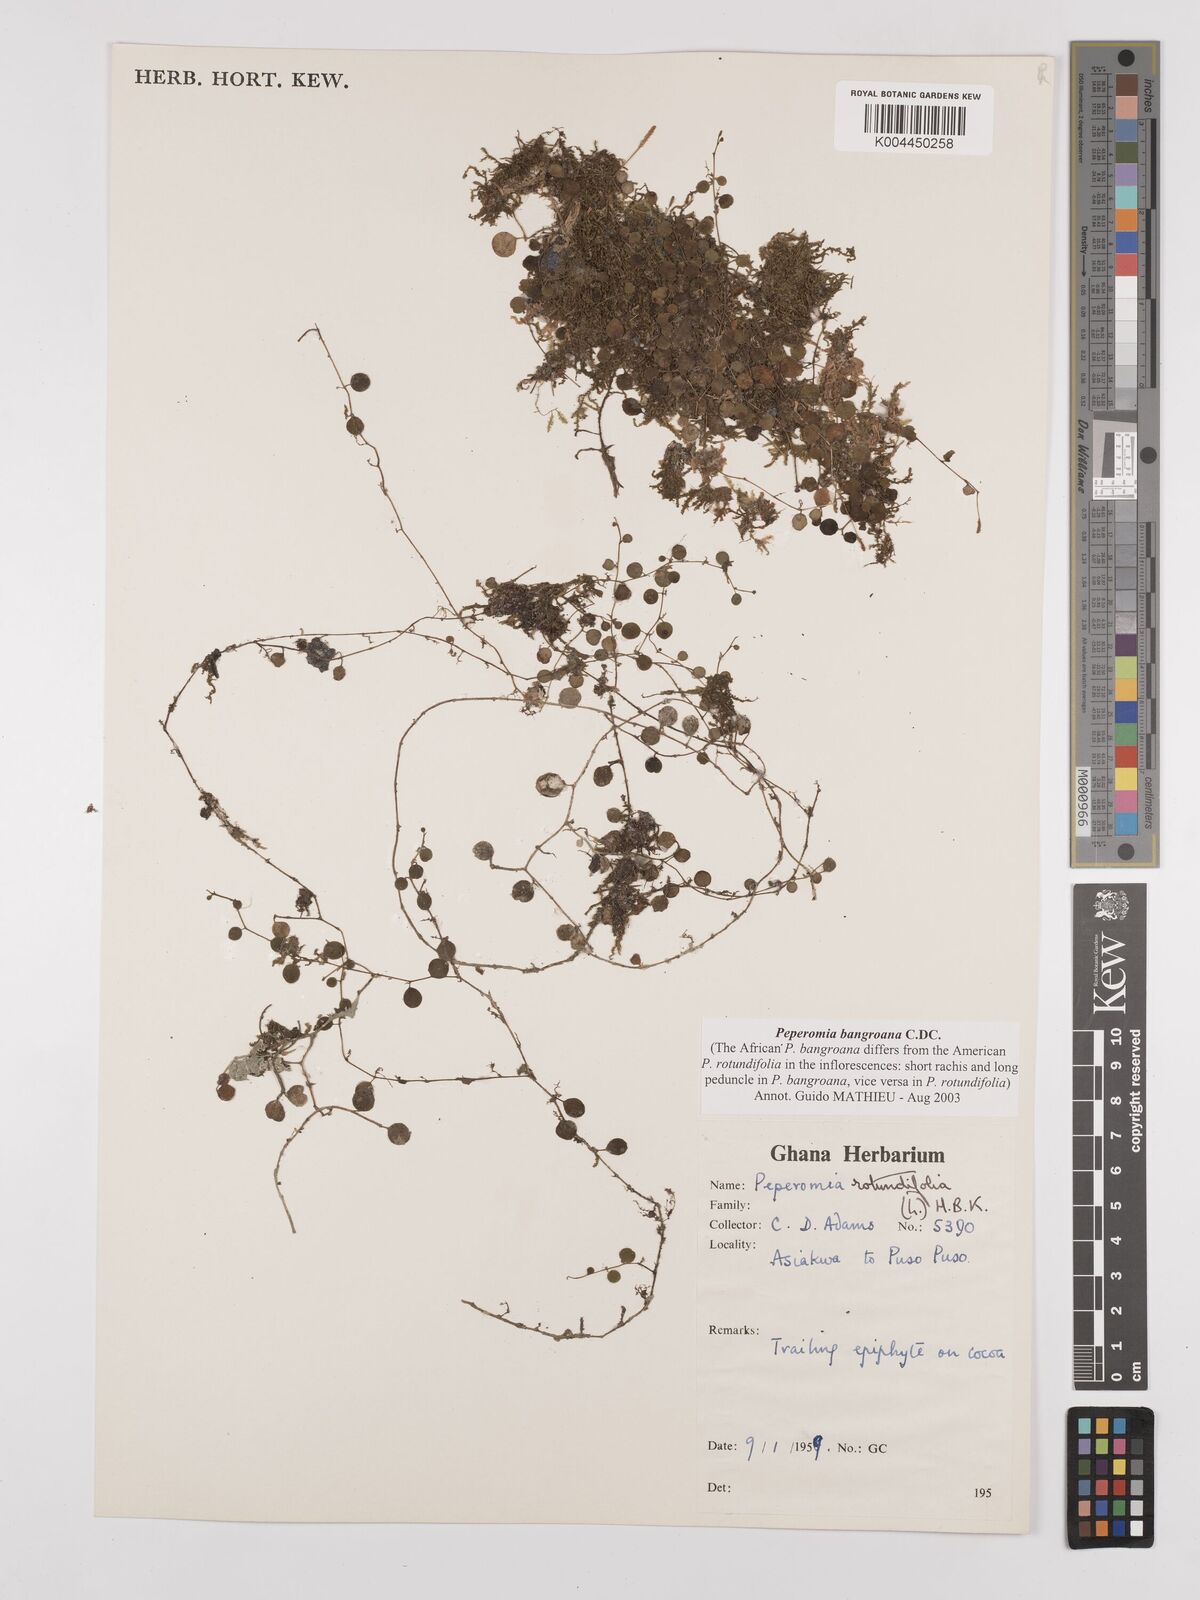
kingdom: Plantae
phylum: Tracheophyta
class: Magnoliopsida
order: Piperales
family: Piperaceae
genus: Peperomia
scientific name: Peperomia bangroana
